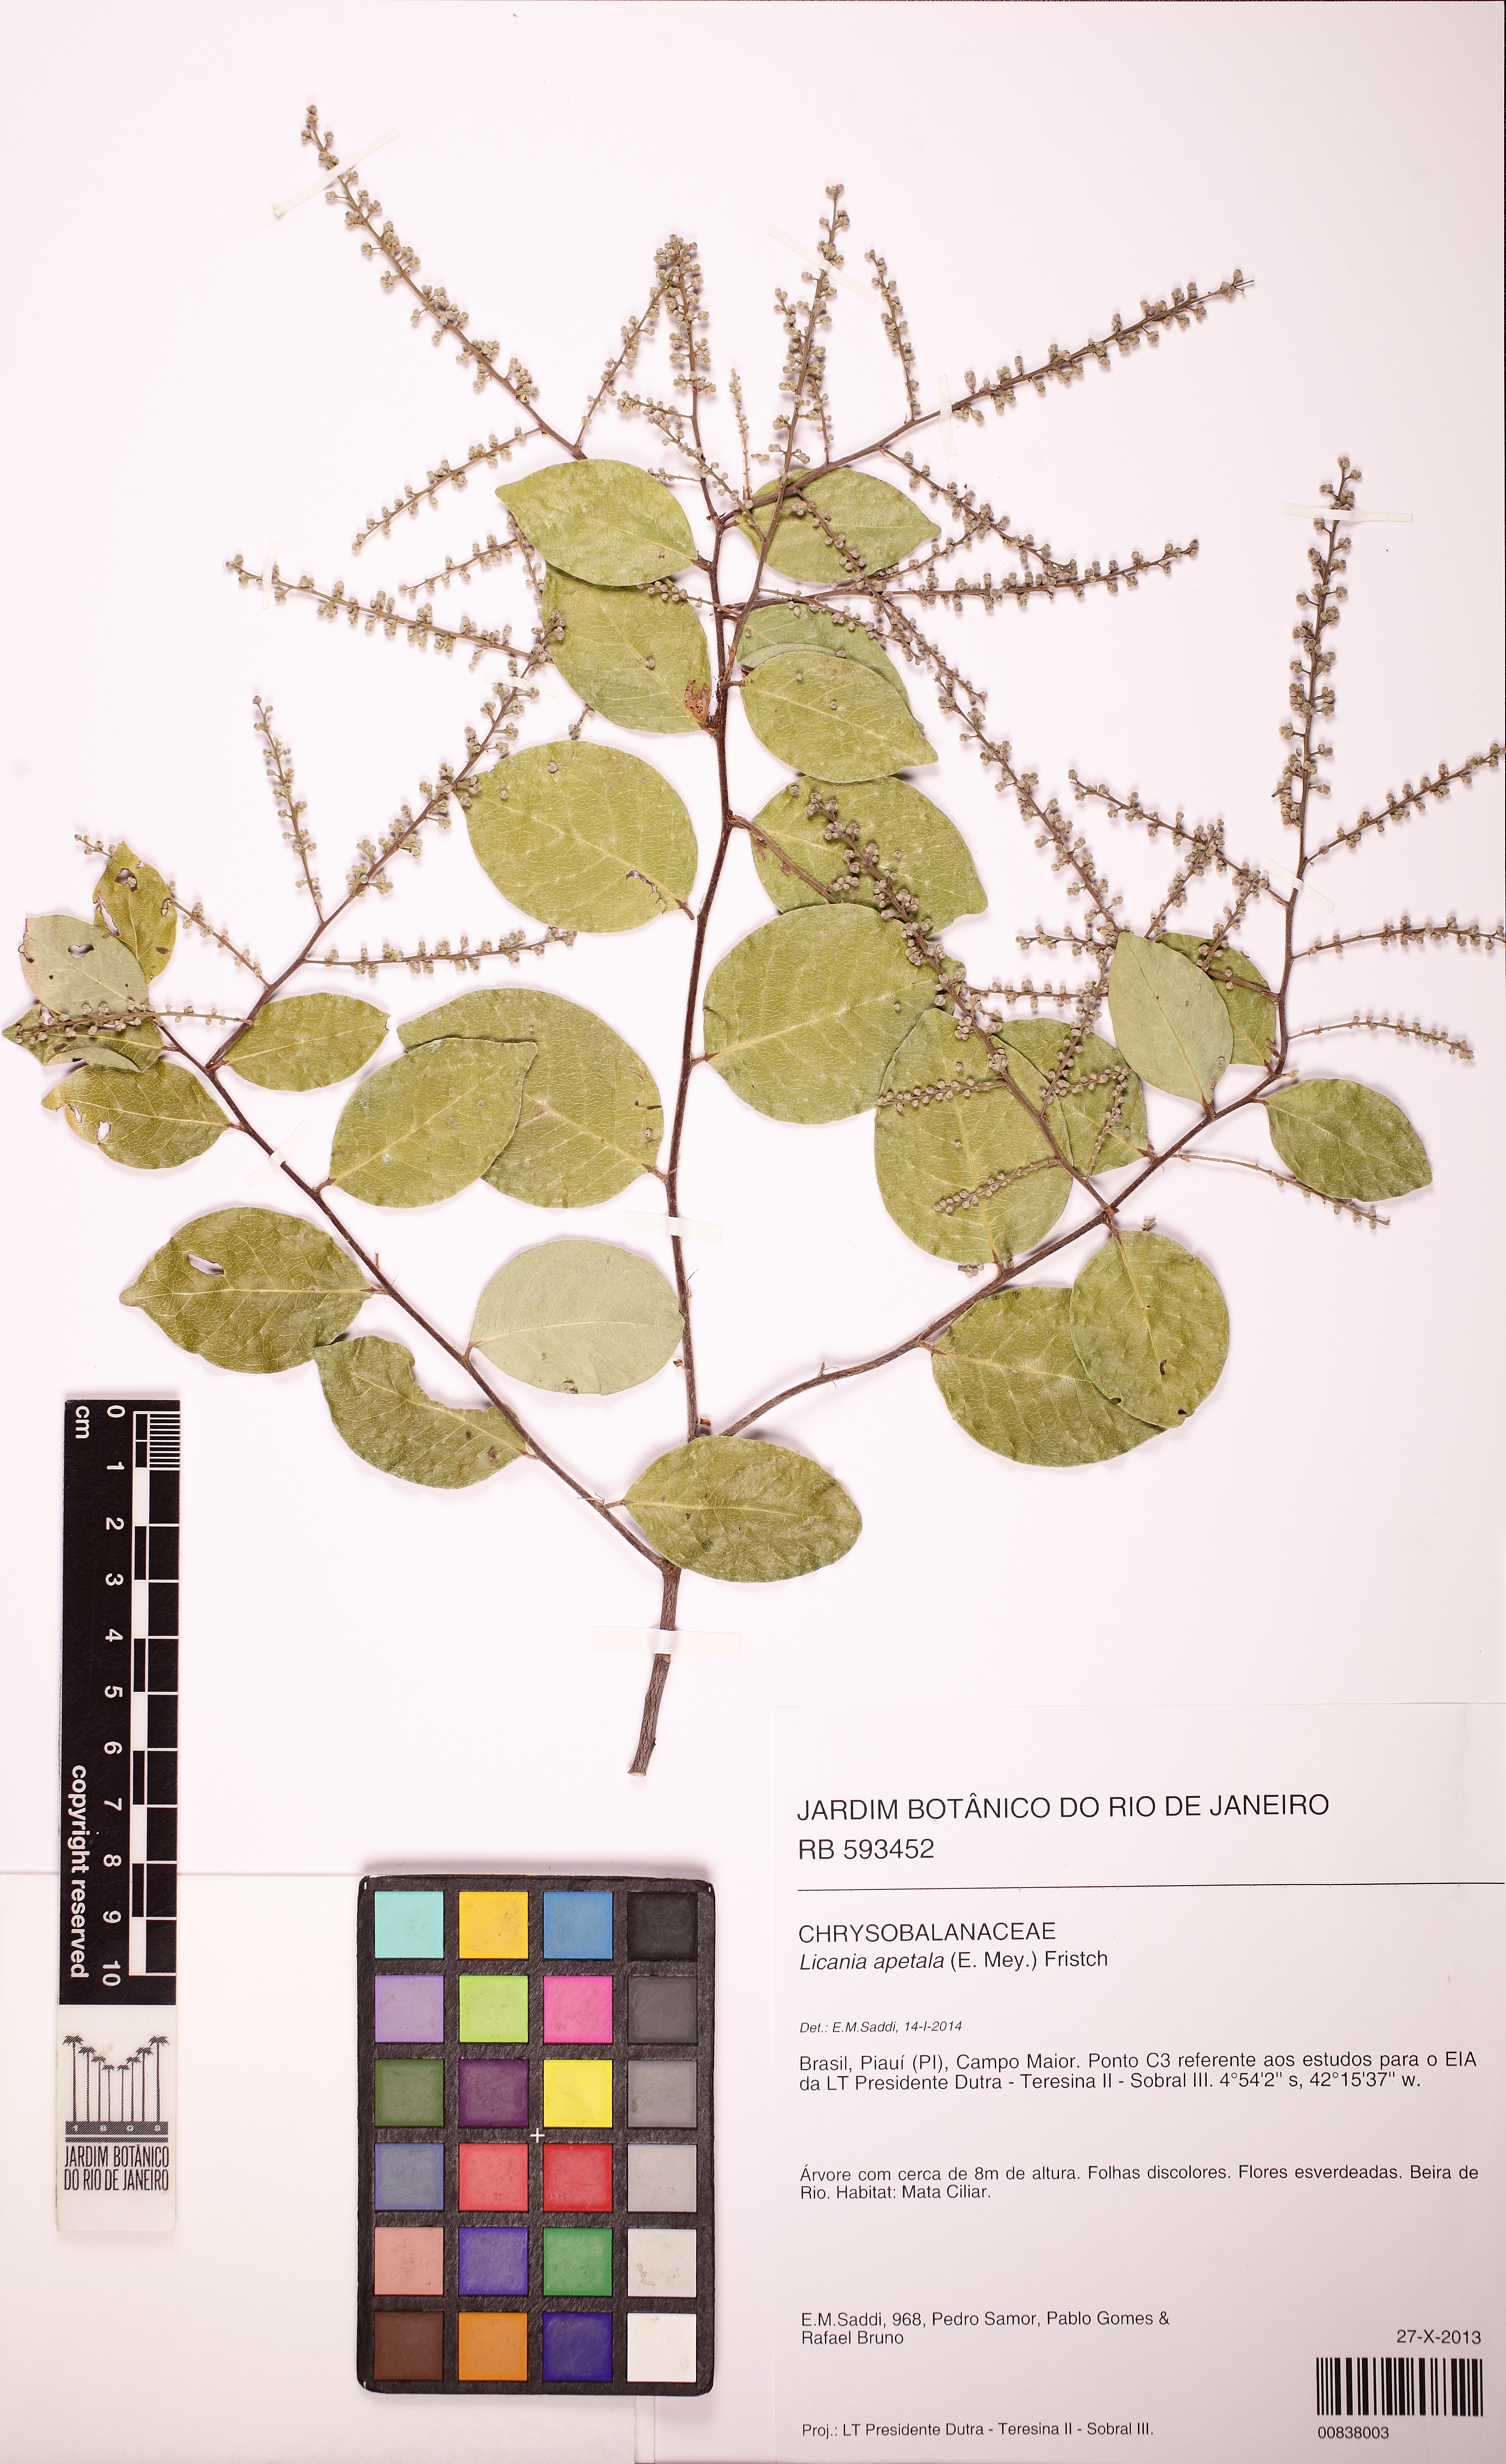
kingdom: Plantae
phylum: Tracheophyta
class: Magnoliopsida
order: Malpighiales
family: Chrysobalanaceae
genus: Leptobalanus
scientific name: Leptobalanus apetalus
